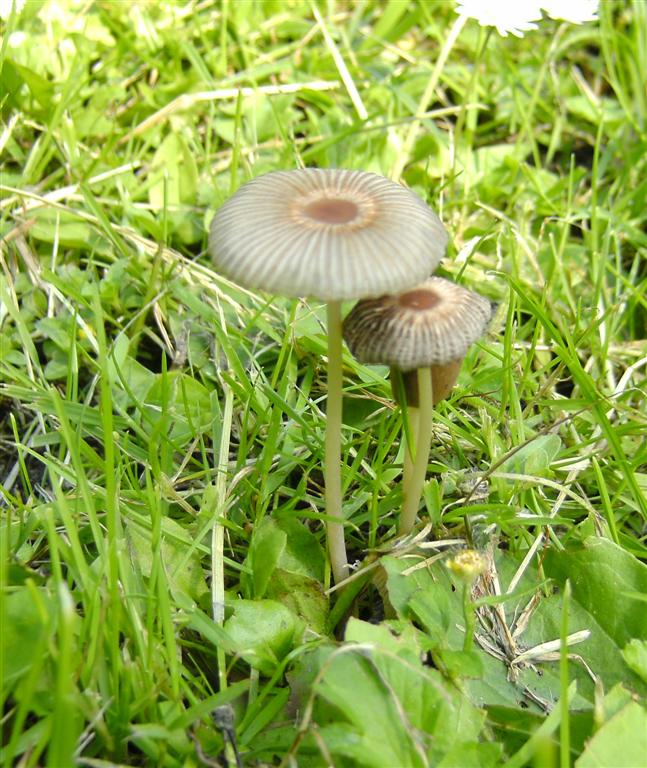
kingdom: Fungi
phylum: Basidiomycota
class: Agaricomycetes
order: Agaricales
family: Psathyrellaceae
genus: Parasola
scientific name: Parasola kuehneri
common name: skygge-hjulhat
